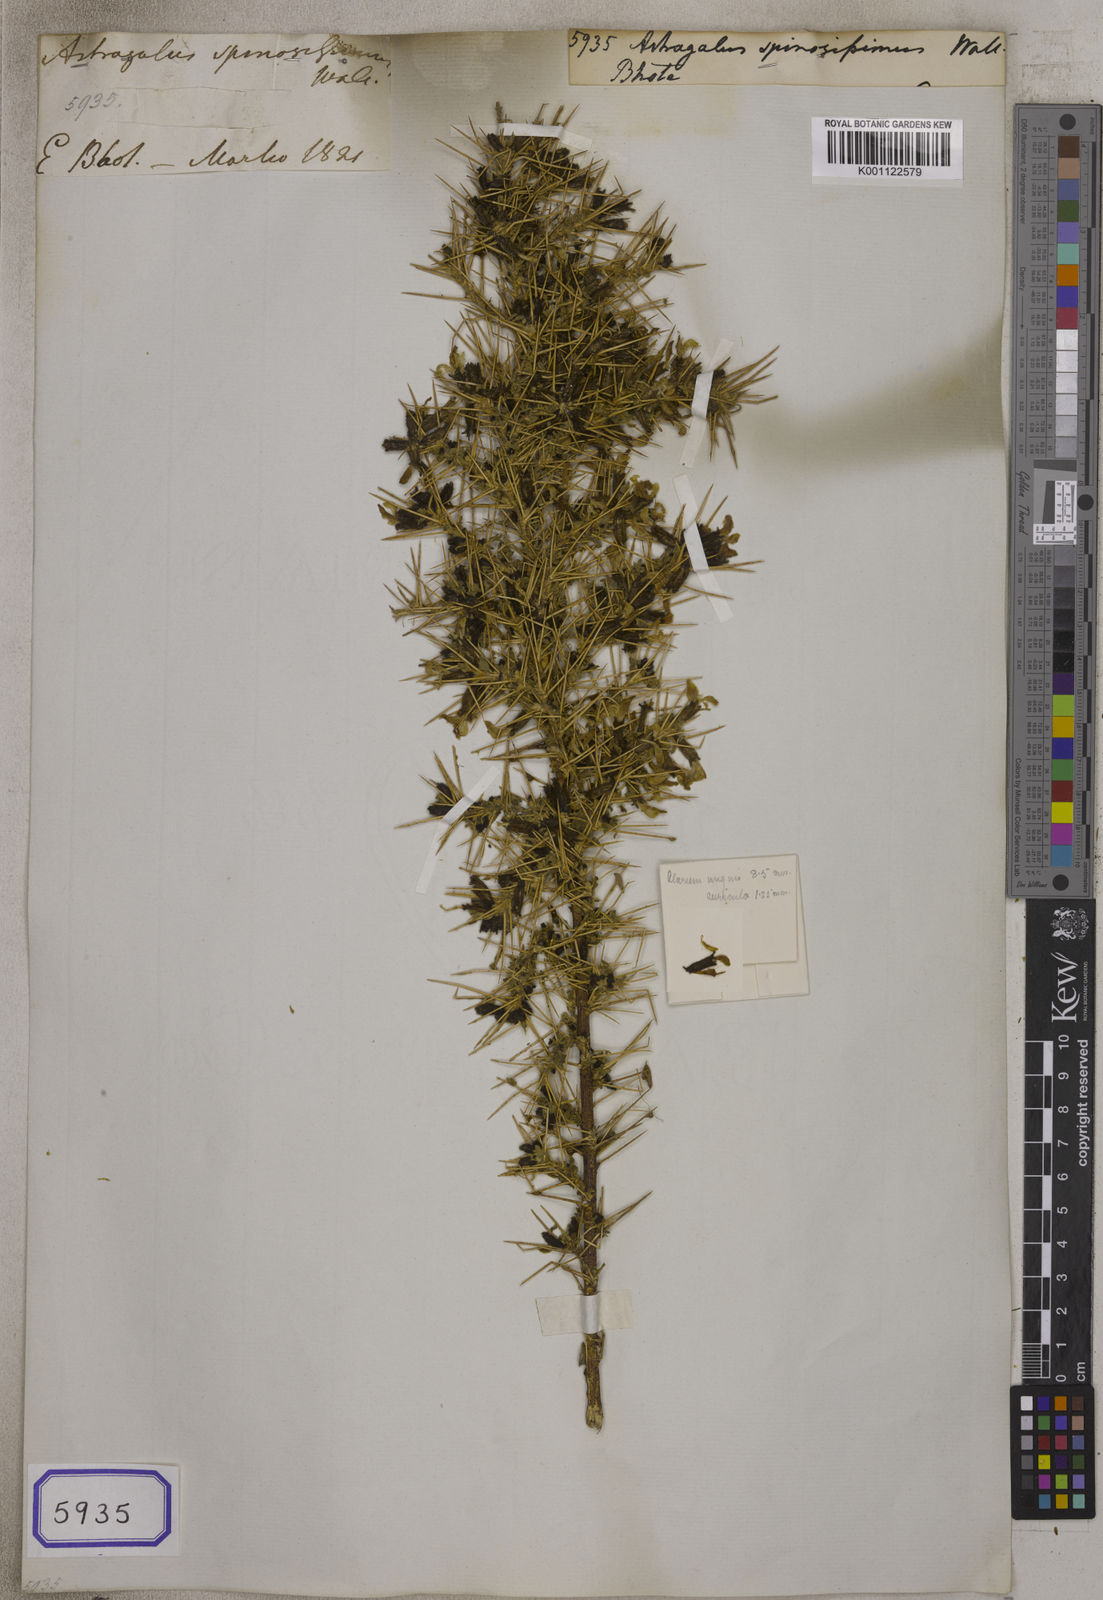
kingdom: Plantae
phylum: Tracheophyta
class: Magnoliopsida
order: Fabales
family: Fabaceae
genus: Astragalus
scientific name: Astragalus
